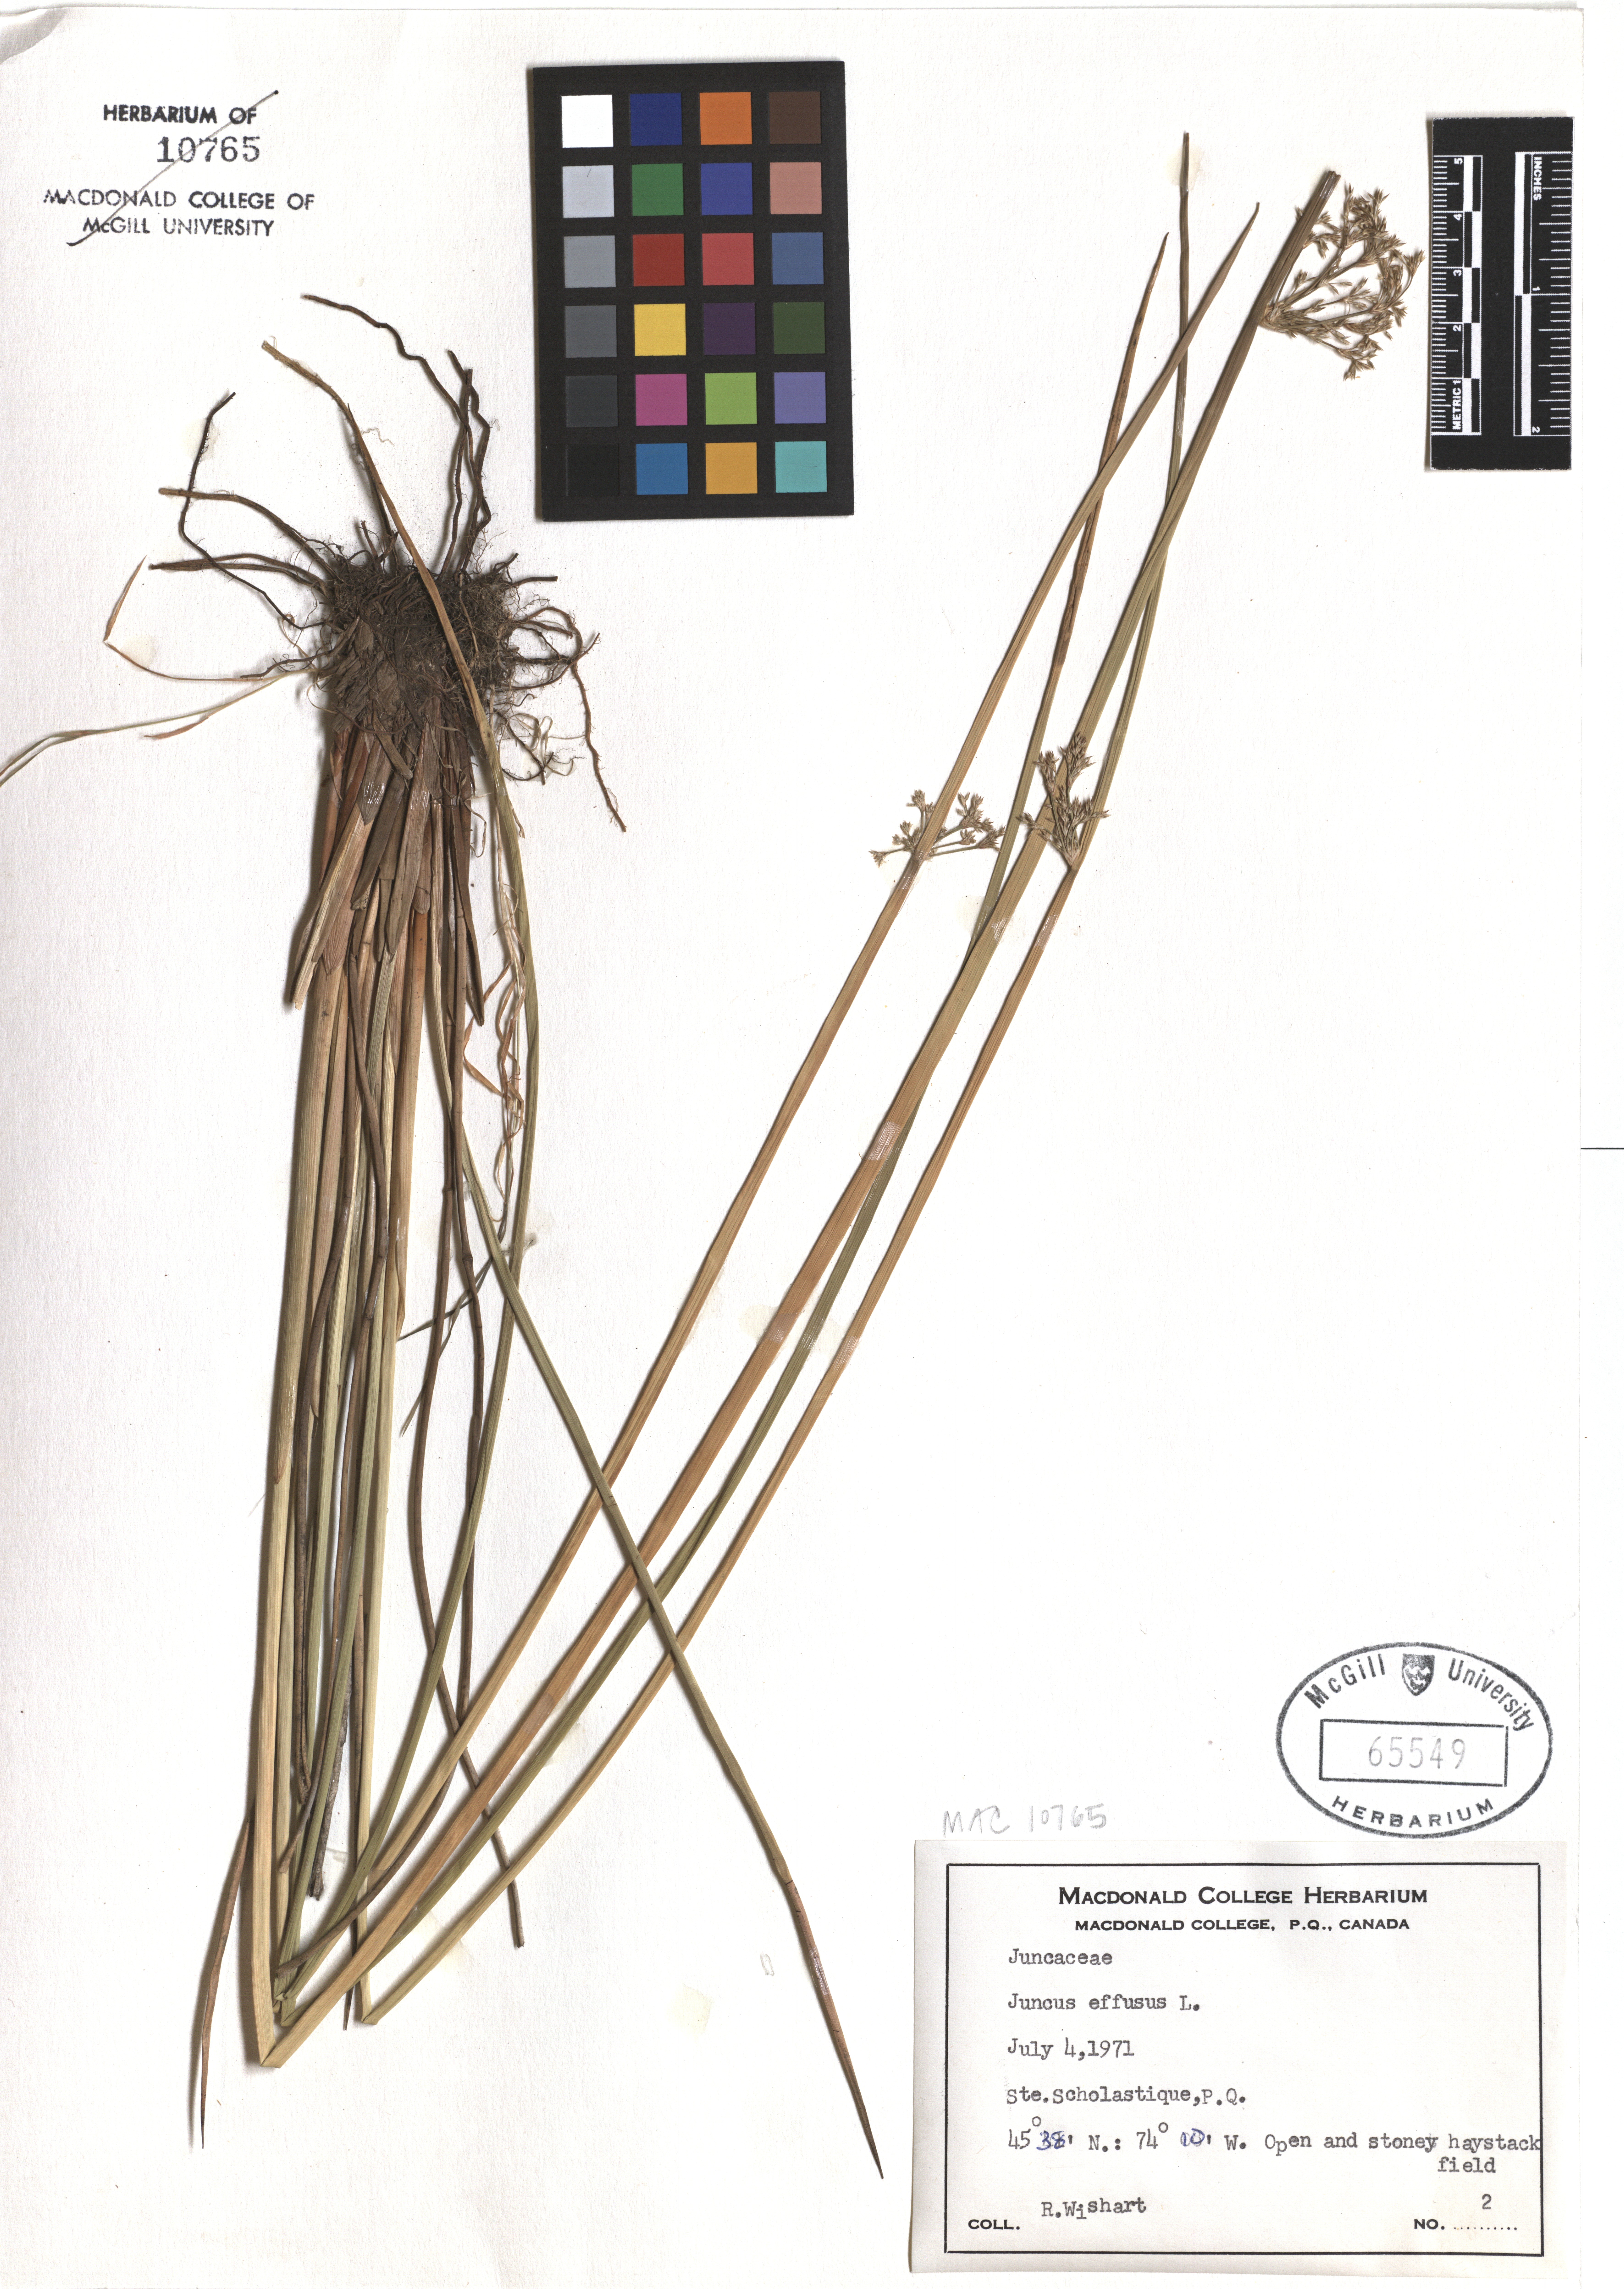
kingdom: Plantae
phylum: Tracheophyta
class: Liliopsida
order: Poales
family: Juncaceae
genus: Juncus
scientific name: Juncus effusus
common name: Soft rush
